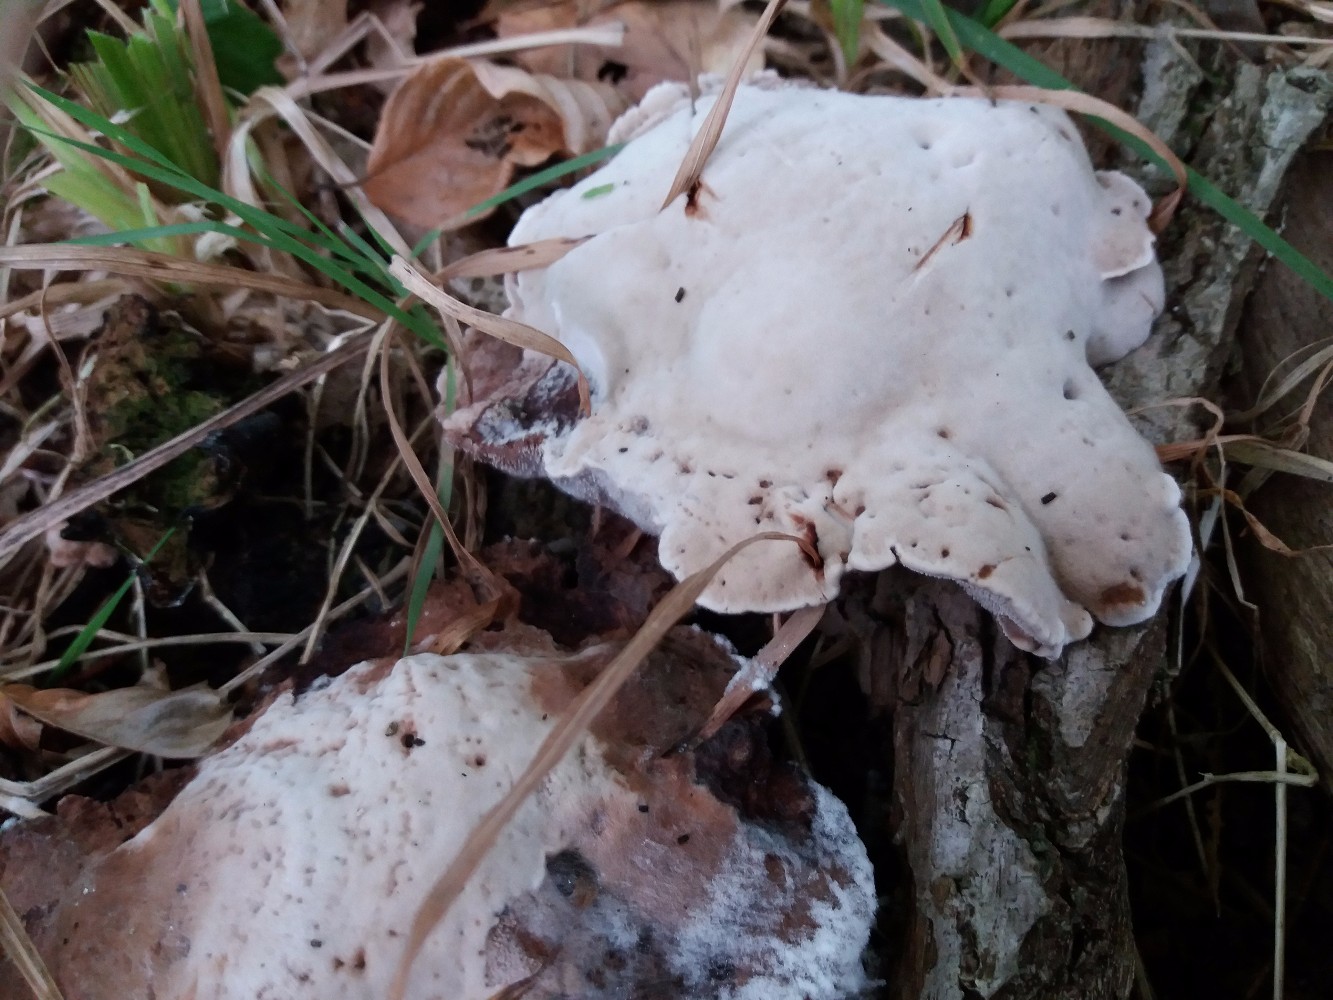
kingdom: Fungi
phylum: Basidiomycota
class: Agaricomycetes
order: Thelephorales
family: Bankeraceae
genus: Hydnellum
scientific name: Hydnellum spongiosipes
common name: filtet korkpigsvamp
